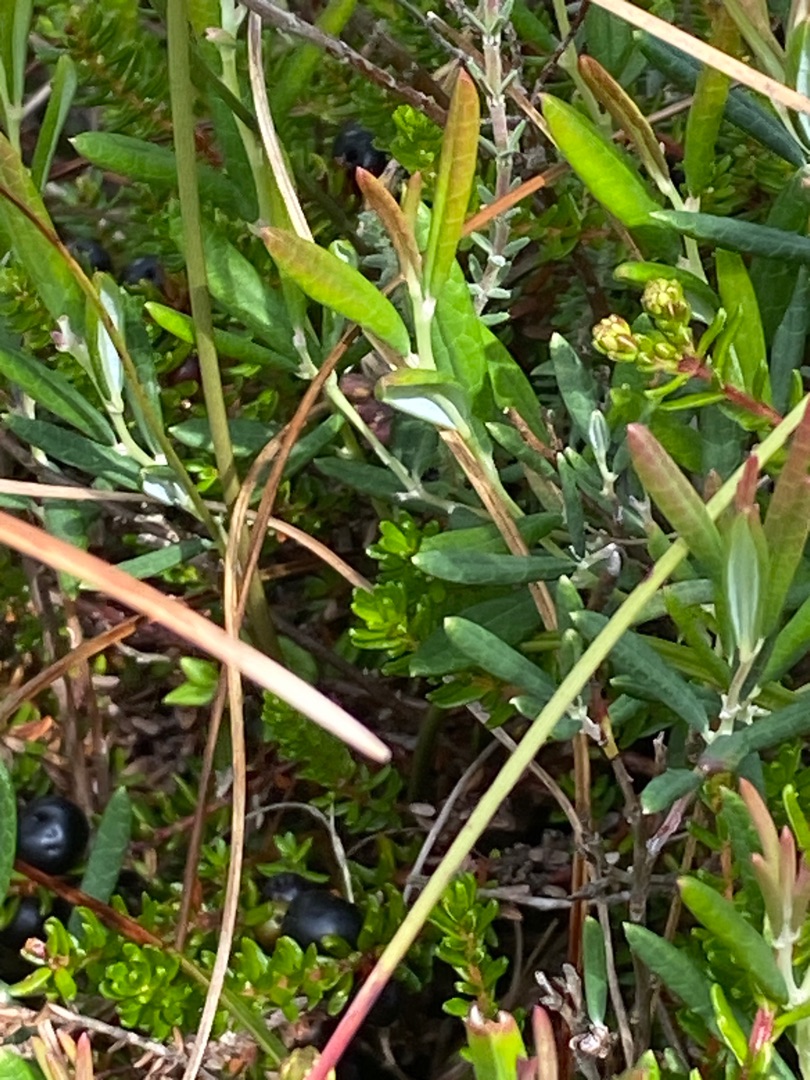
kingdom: Plantae
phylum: Tracheophyta
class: Magnoliopsida
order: Ericales
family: Ericaceae
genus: Andromeda
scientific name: Andromeda polifolia
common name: Rosmarinlyng
